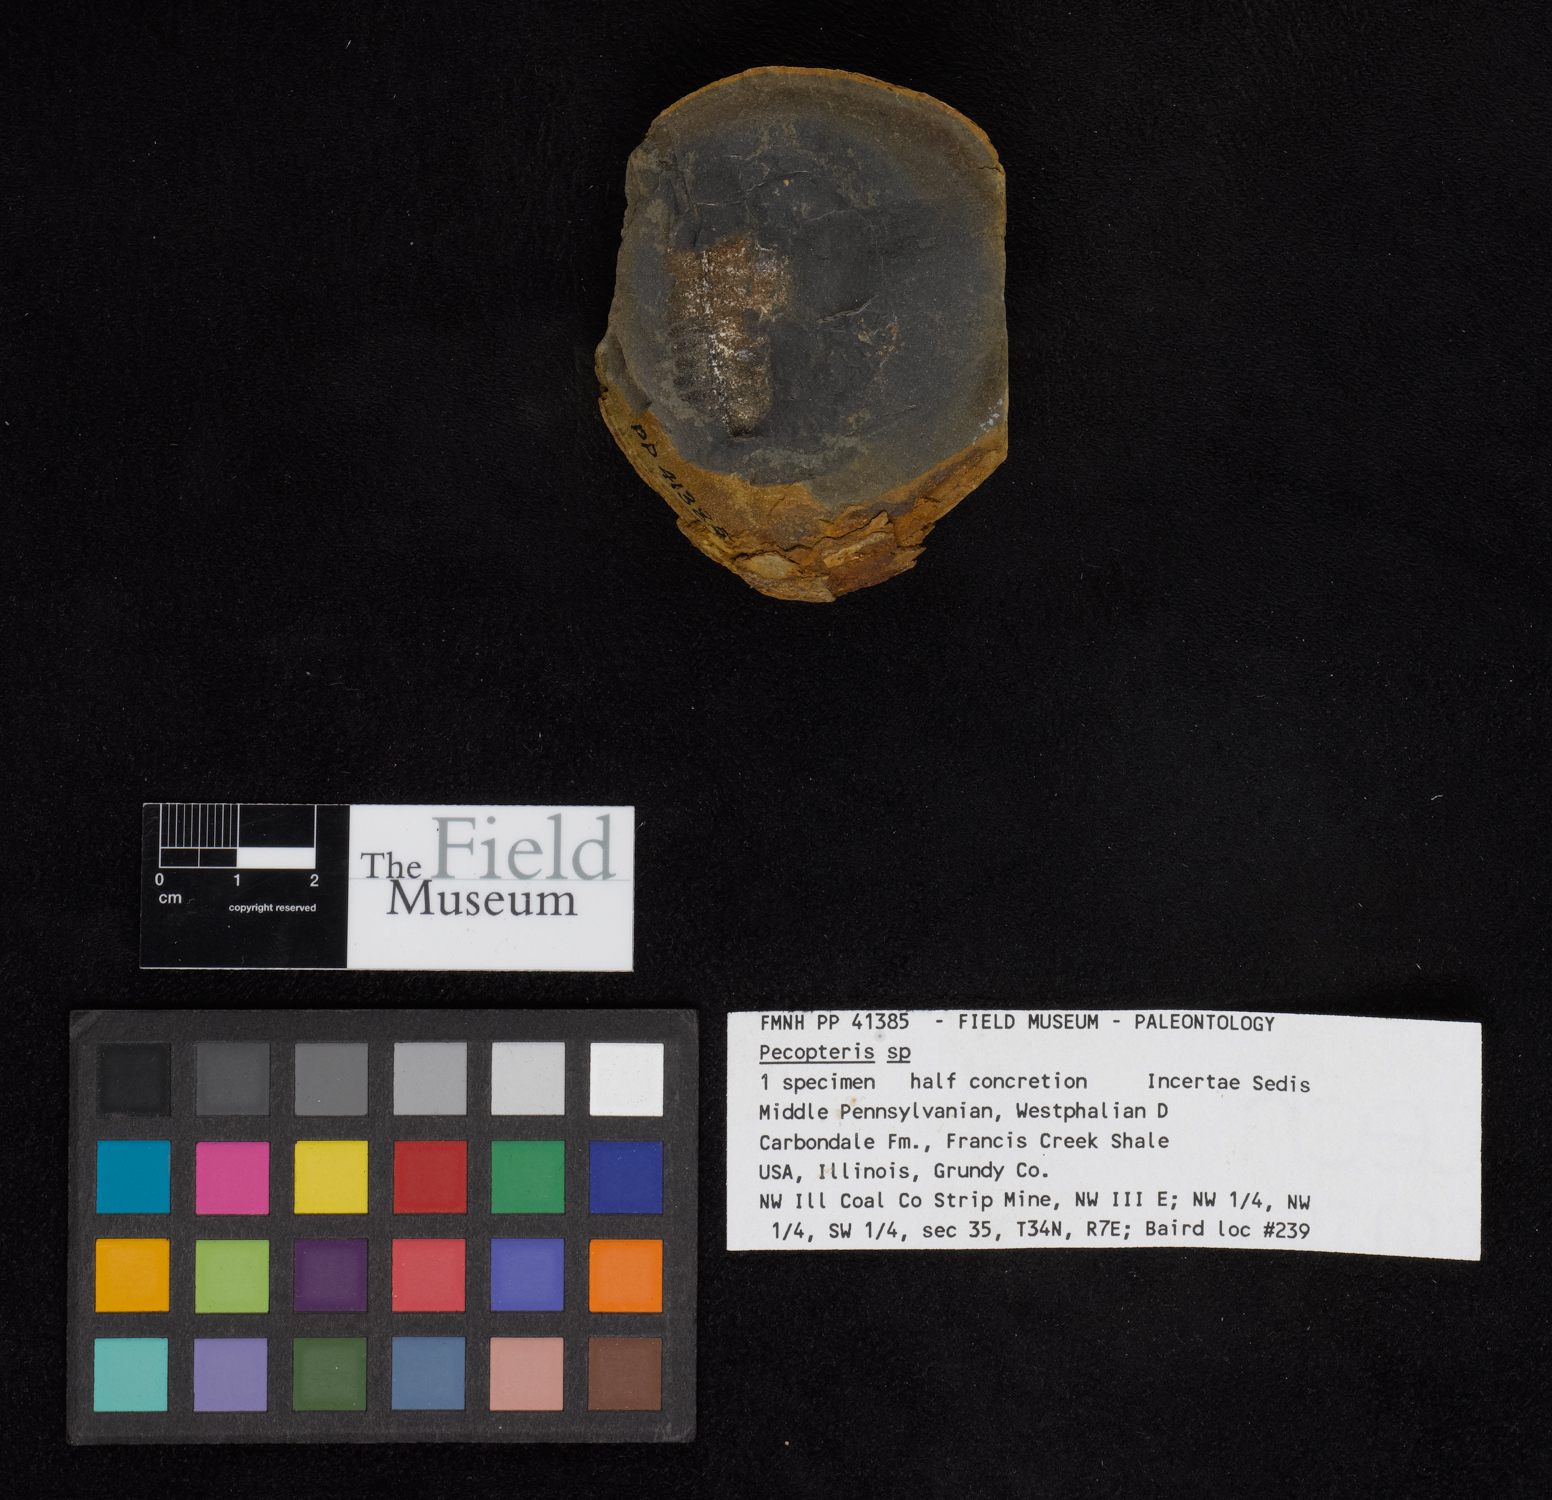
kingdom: Plantae
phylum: Tracheophyta
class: Polypodiopsida
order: Marattiales
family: Asterothecaceae
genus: Pecopteris
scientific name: Pecopteris
